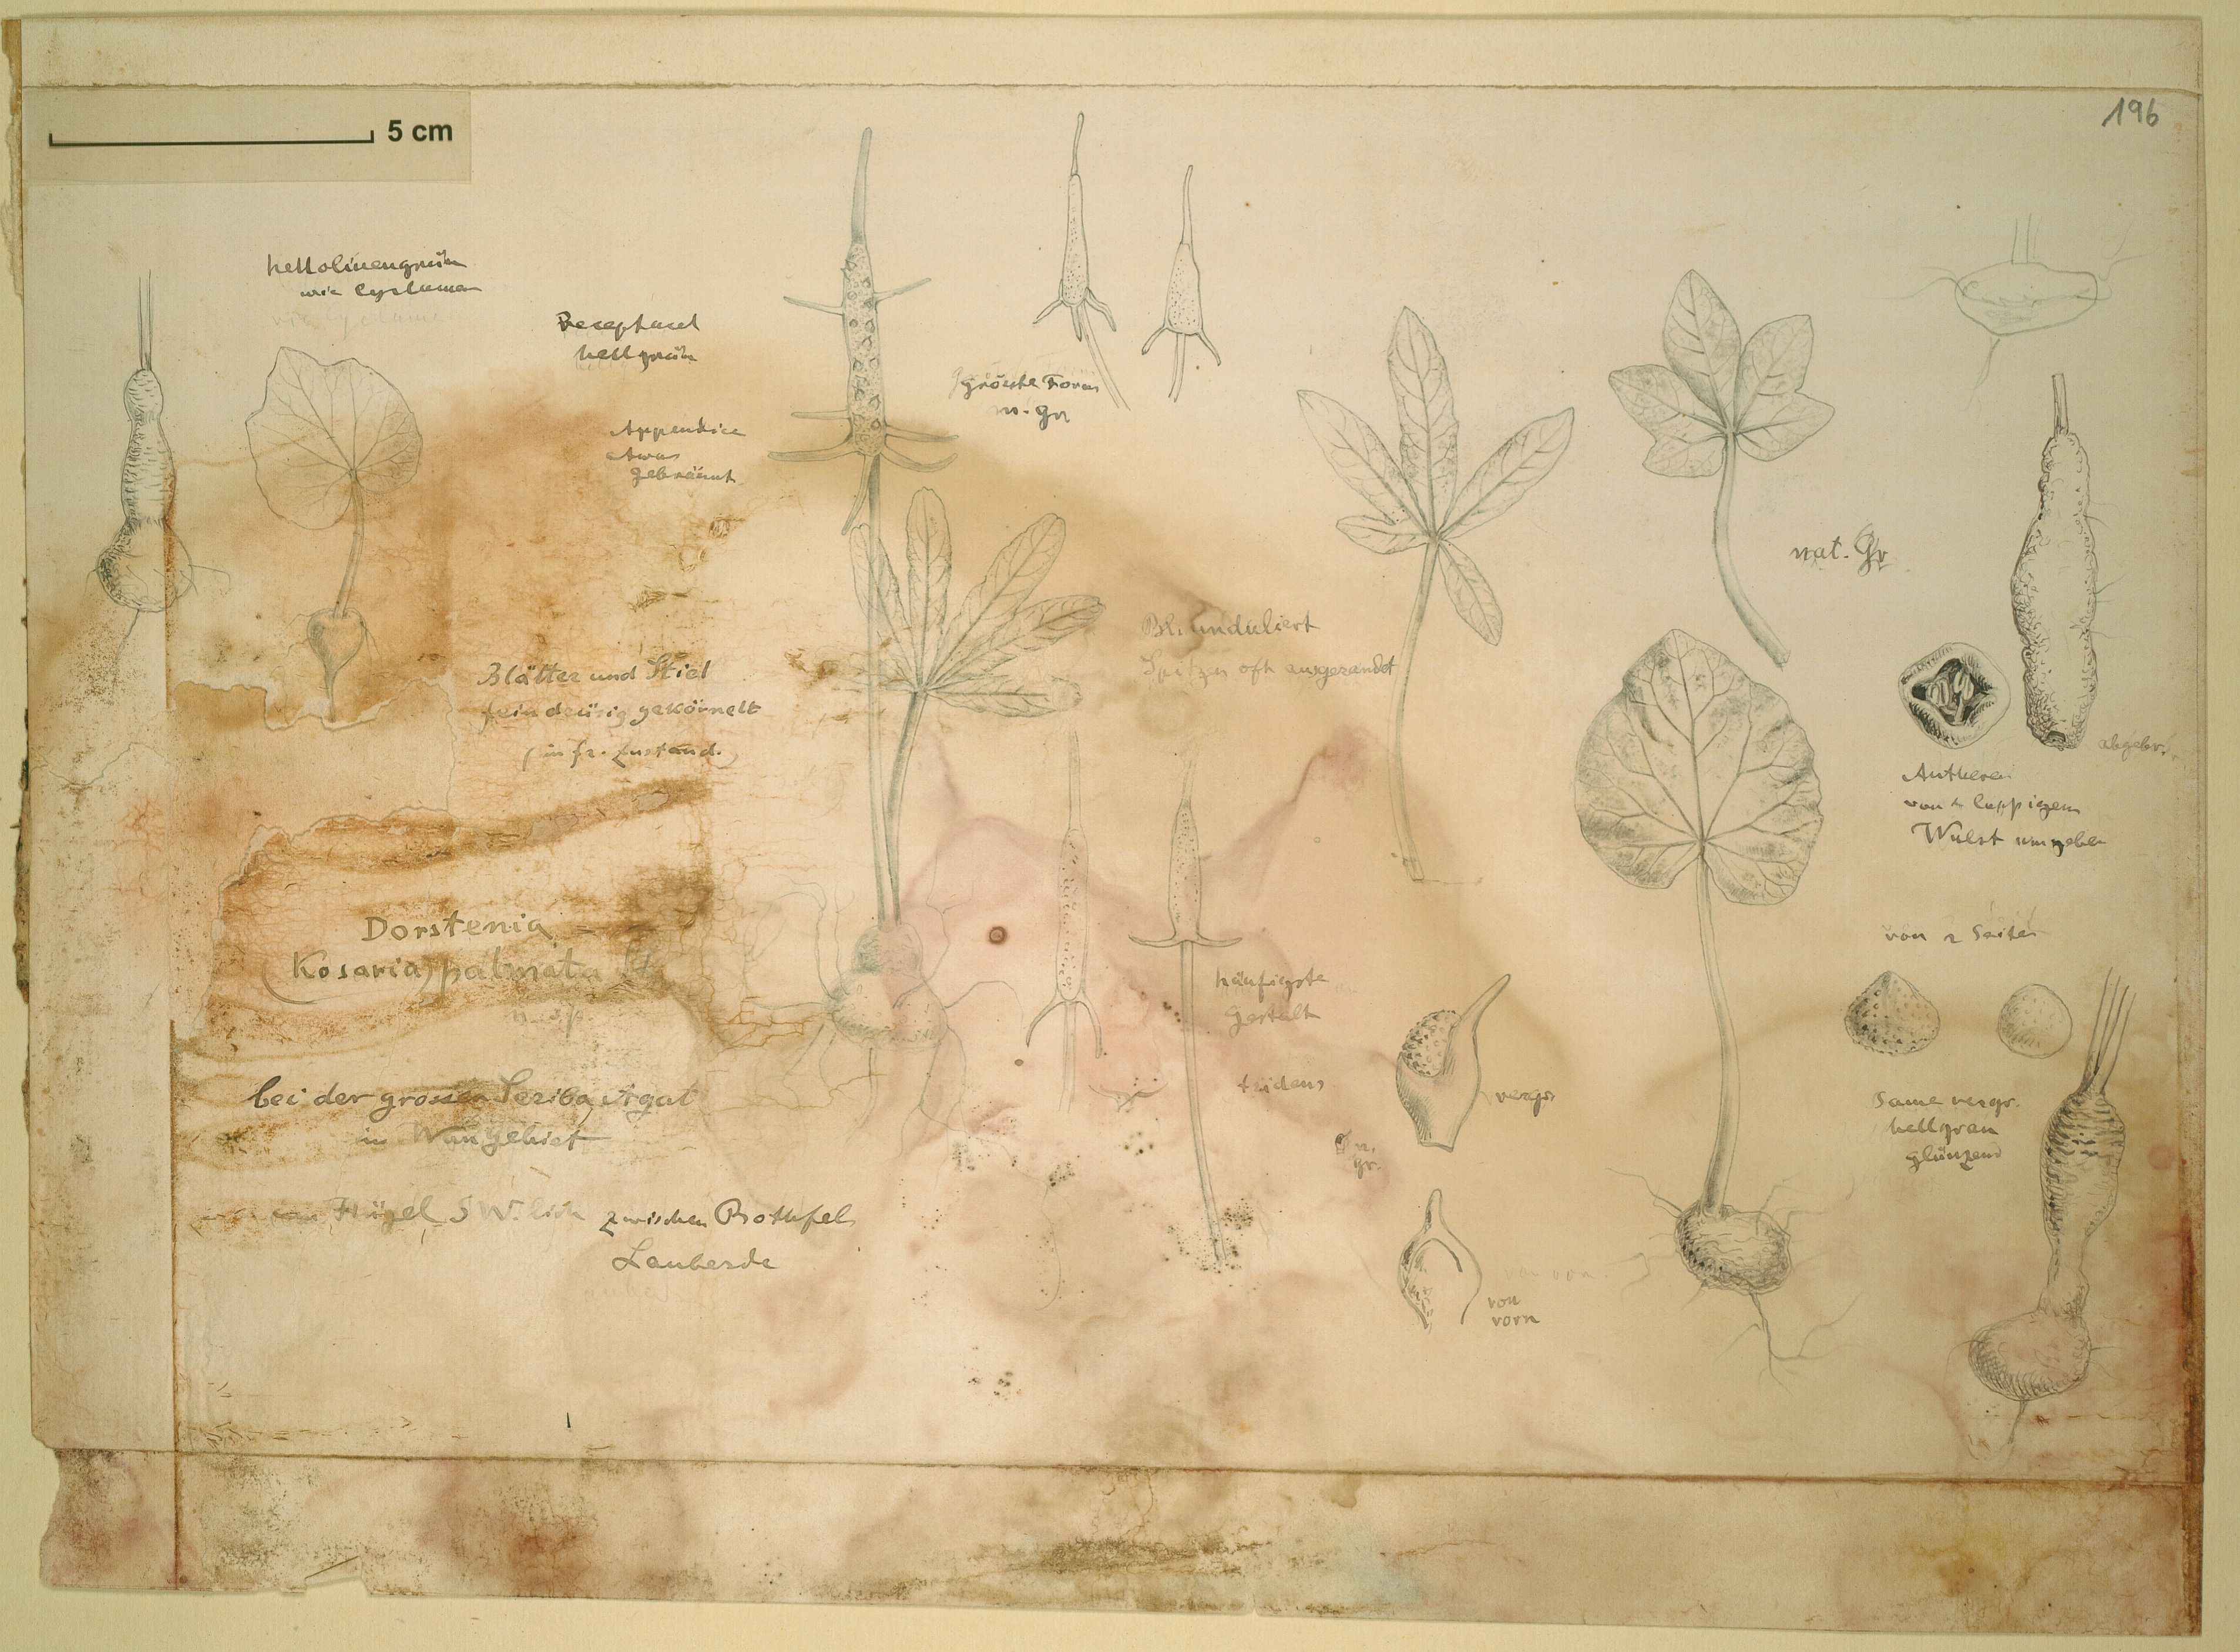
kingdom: Plantae
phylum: Tracheophyta
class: Magnoliopsida
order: Rosales
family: Moraceae
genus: Dorstenia
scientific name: Dorstenia barnimiana
